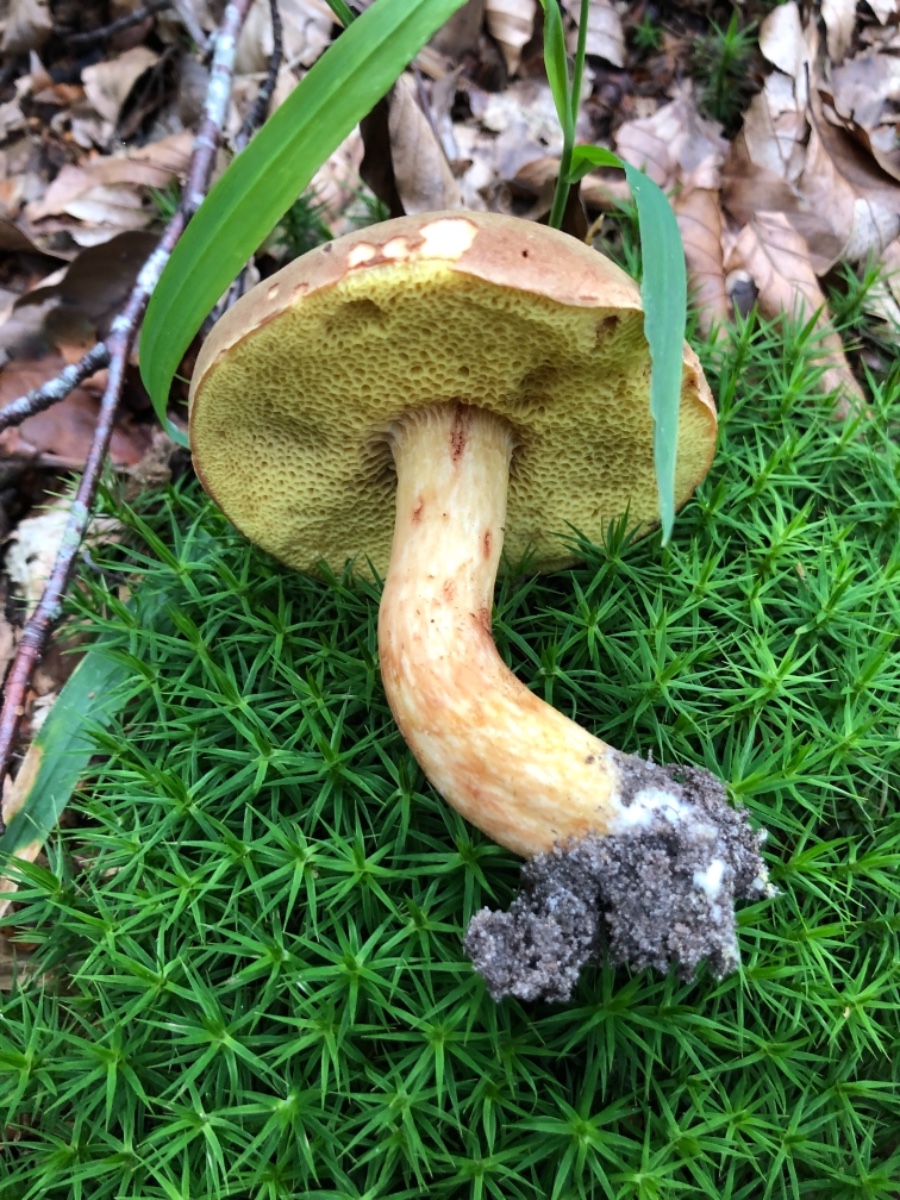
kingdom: Fungi
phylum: Basidiomycota
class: Agaricomycetes
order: Boletales
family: Boletaceae
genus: Xerocomus
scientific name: Xerocomus
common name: filtrørhat
